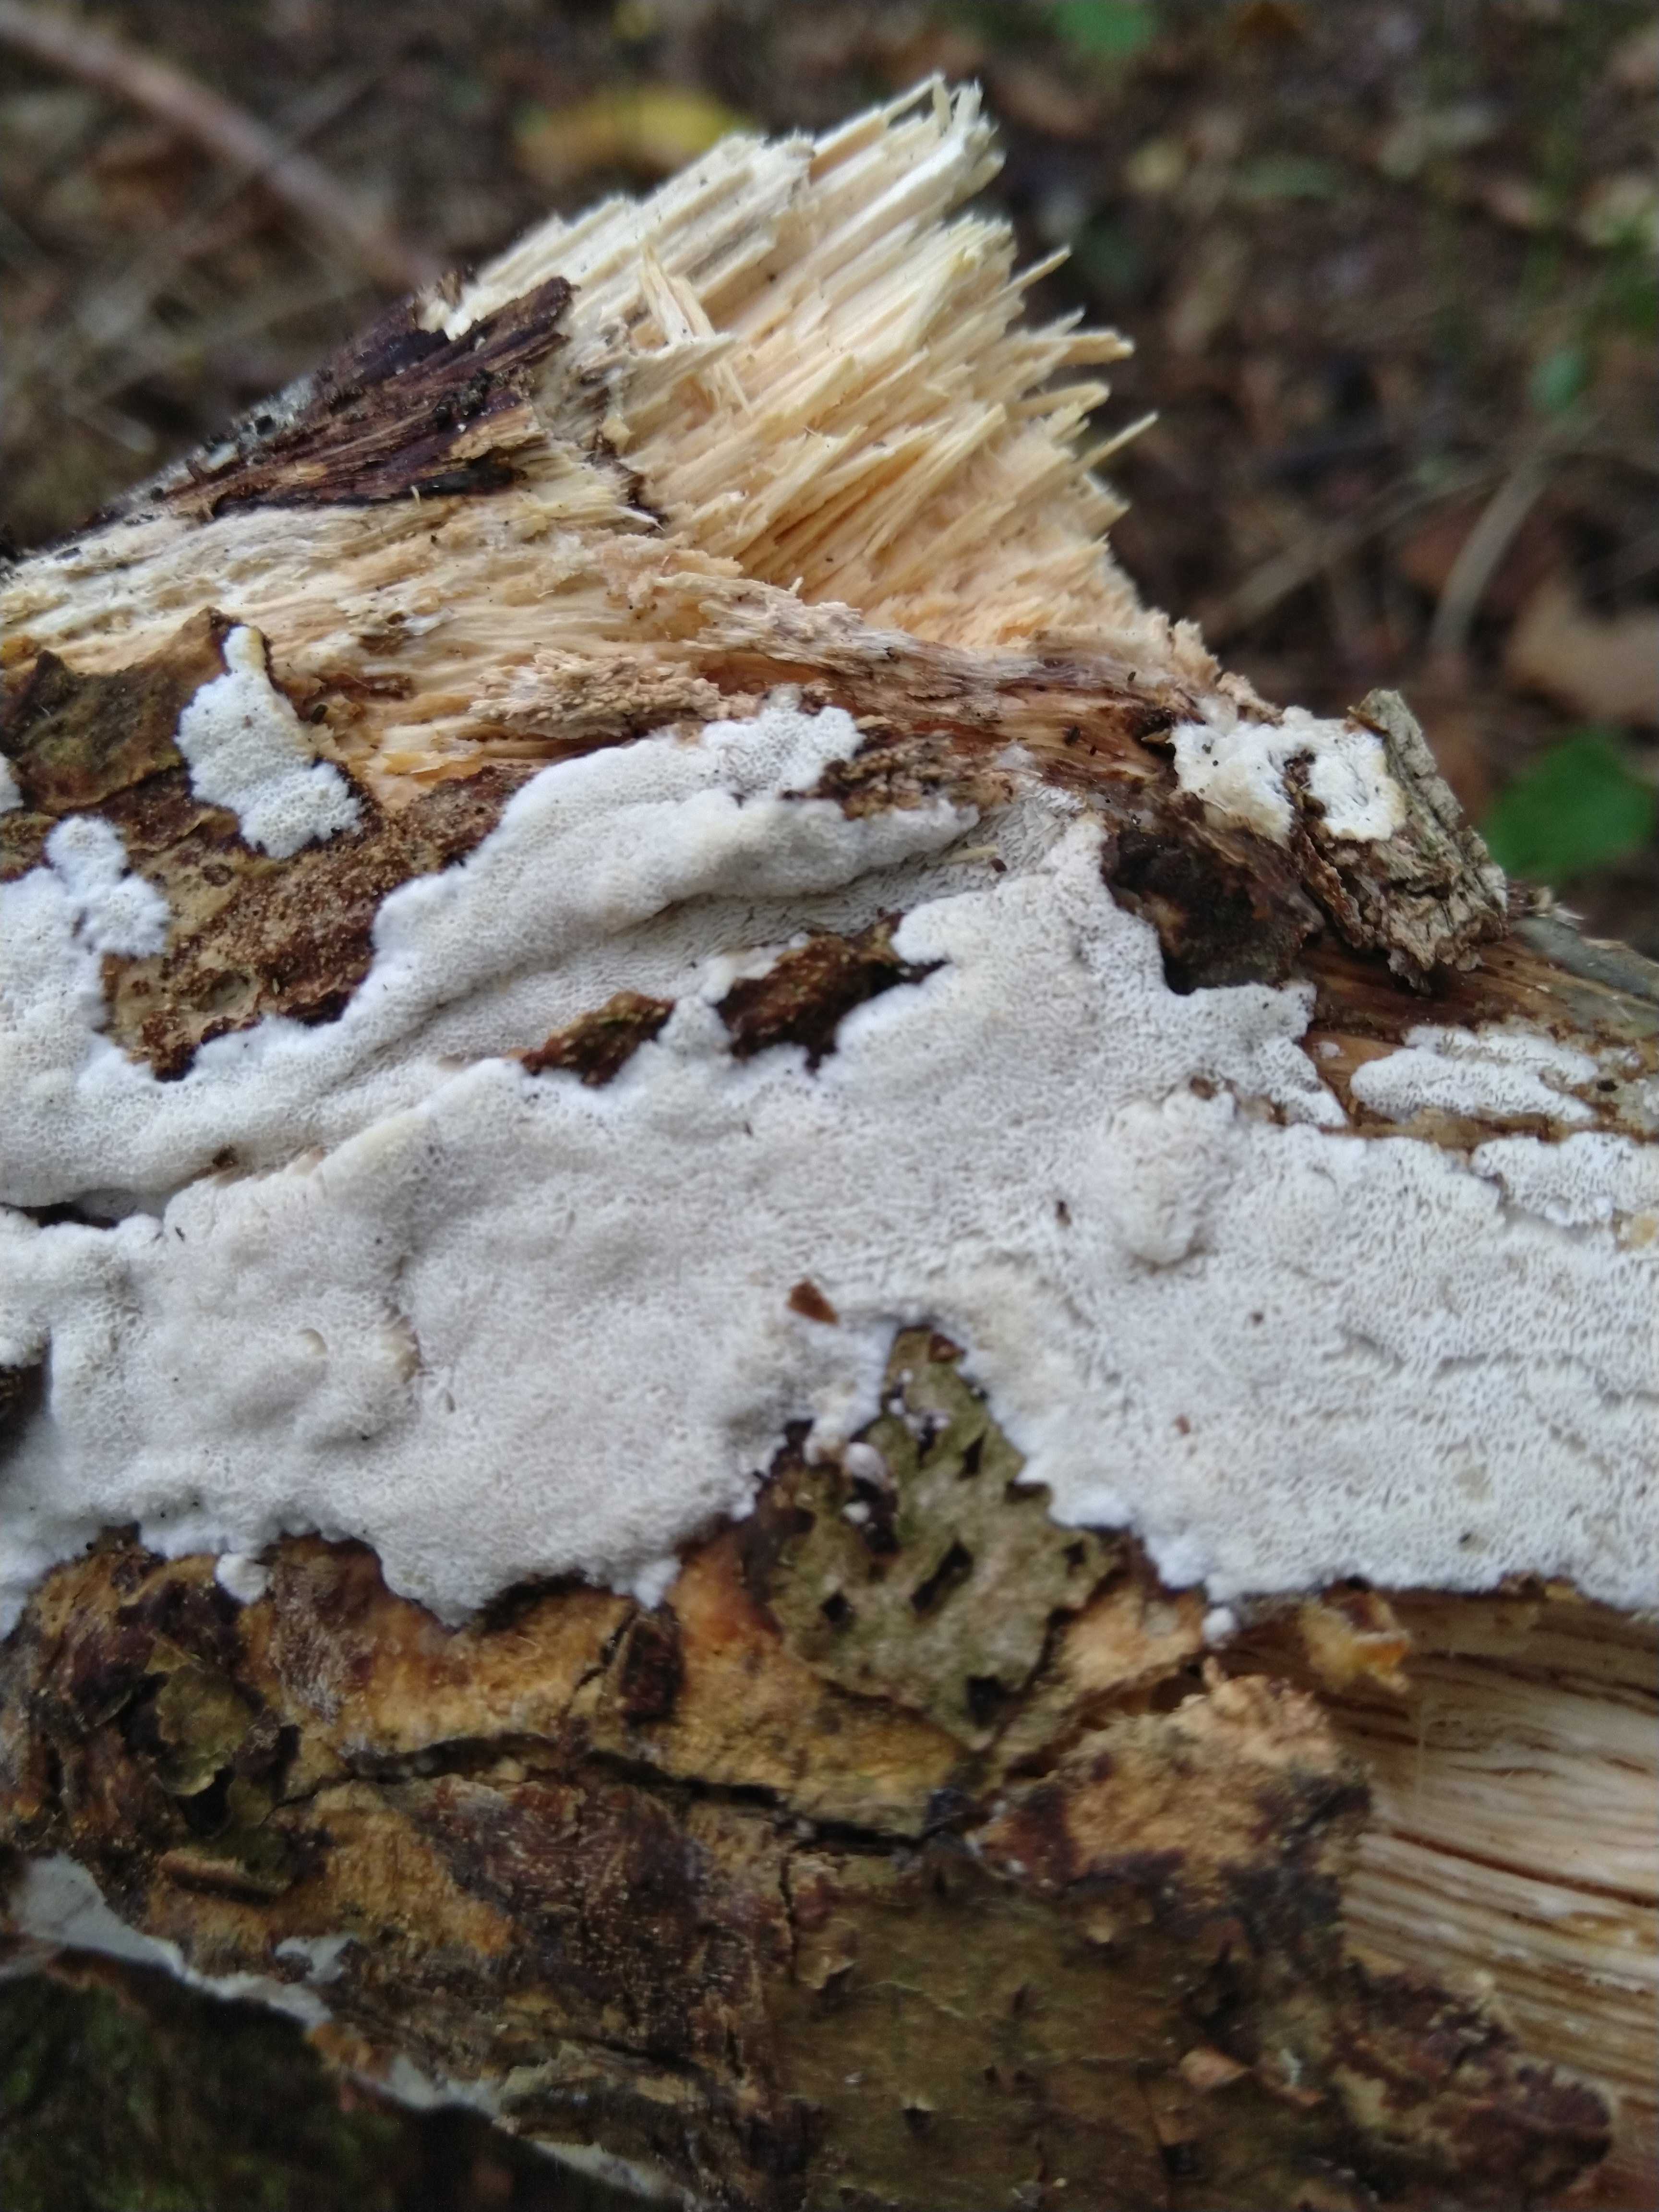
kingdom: Fungi
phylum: Basidiomycota
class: Agaricomycetes
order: Hymenochaetales
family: Schizoporaceae
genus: Xylodon
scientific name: Xylodon
